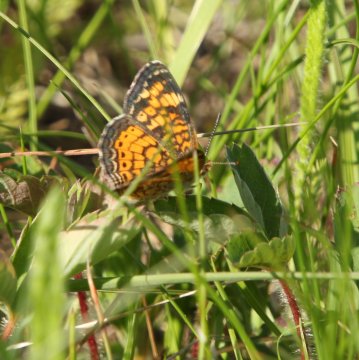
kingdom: Animalia
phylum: Arthropoda
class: Insecta
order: Lepidoptera
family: Nymphalidae
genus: Phyciodes
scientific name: Phyciodes tharos
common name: Pearl Crescent
